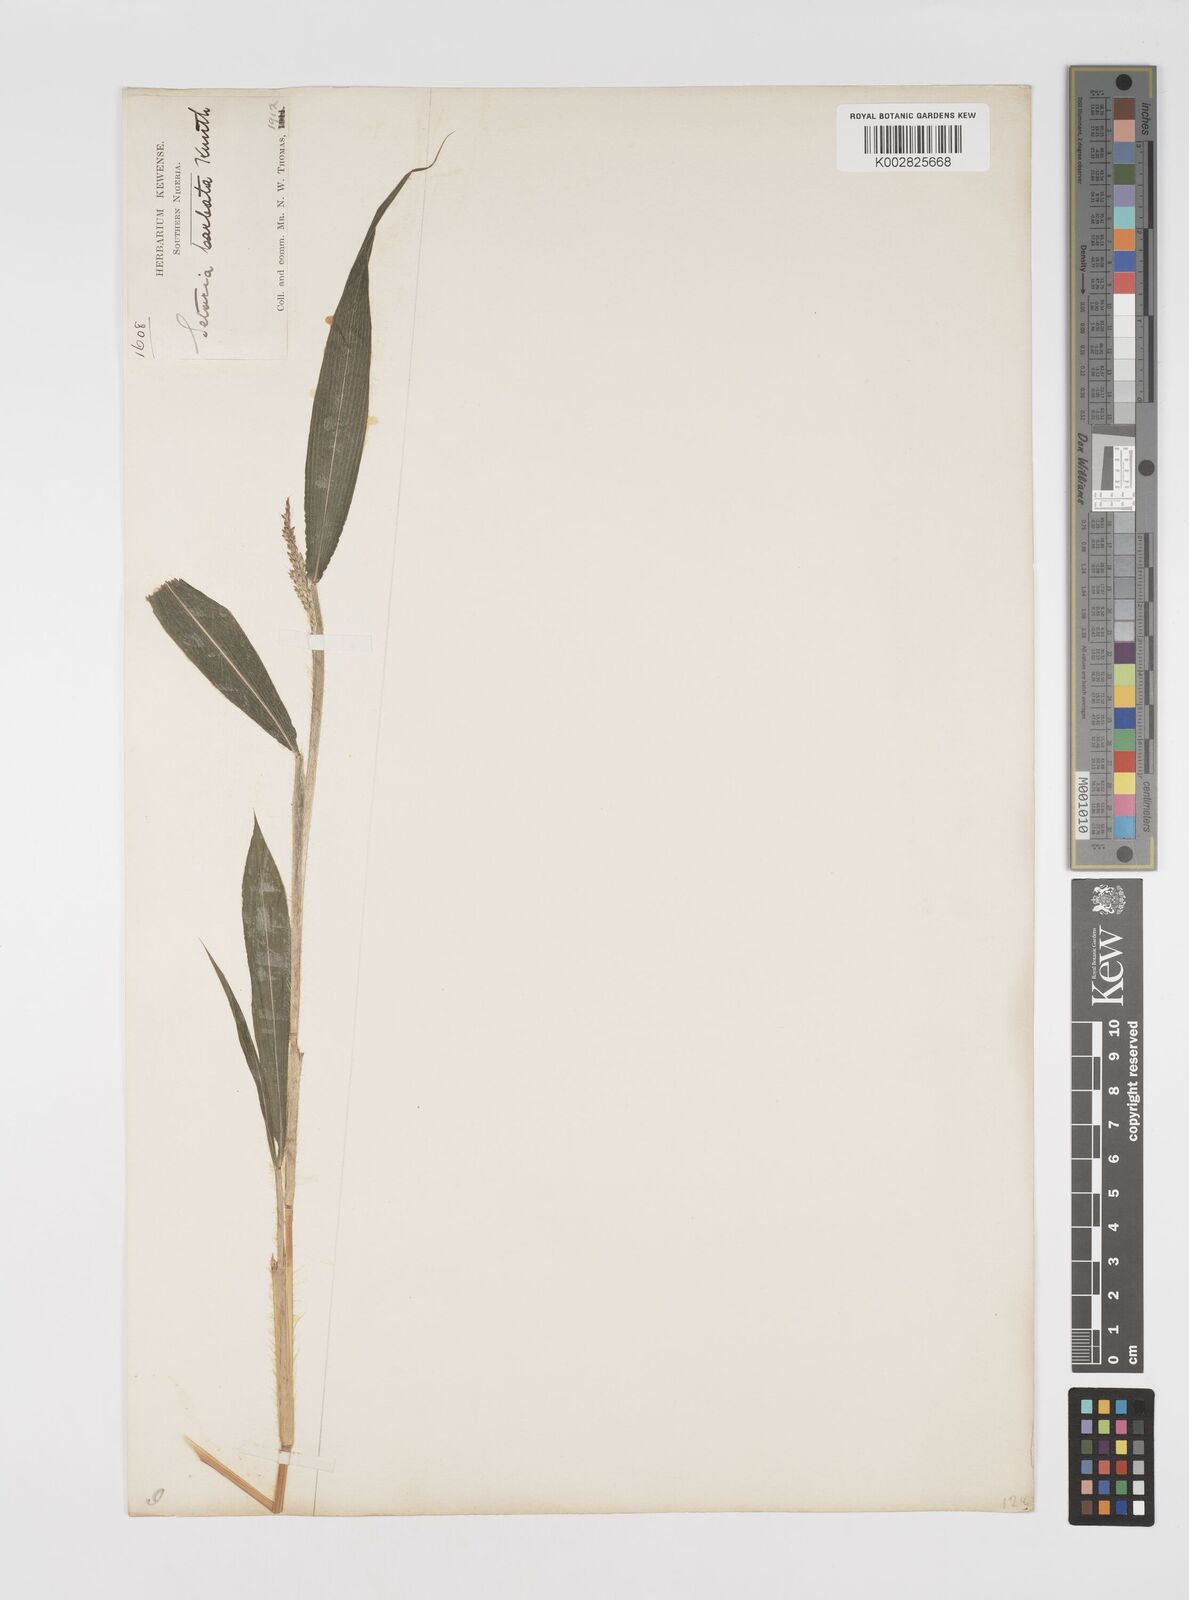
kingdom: Plantae
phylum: Tracheophyta
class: Liliopsida
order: Poales
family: Poaceae
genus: Setaria
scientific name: Setaria barbata
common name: East indian bristlegrass
